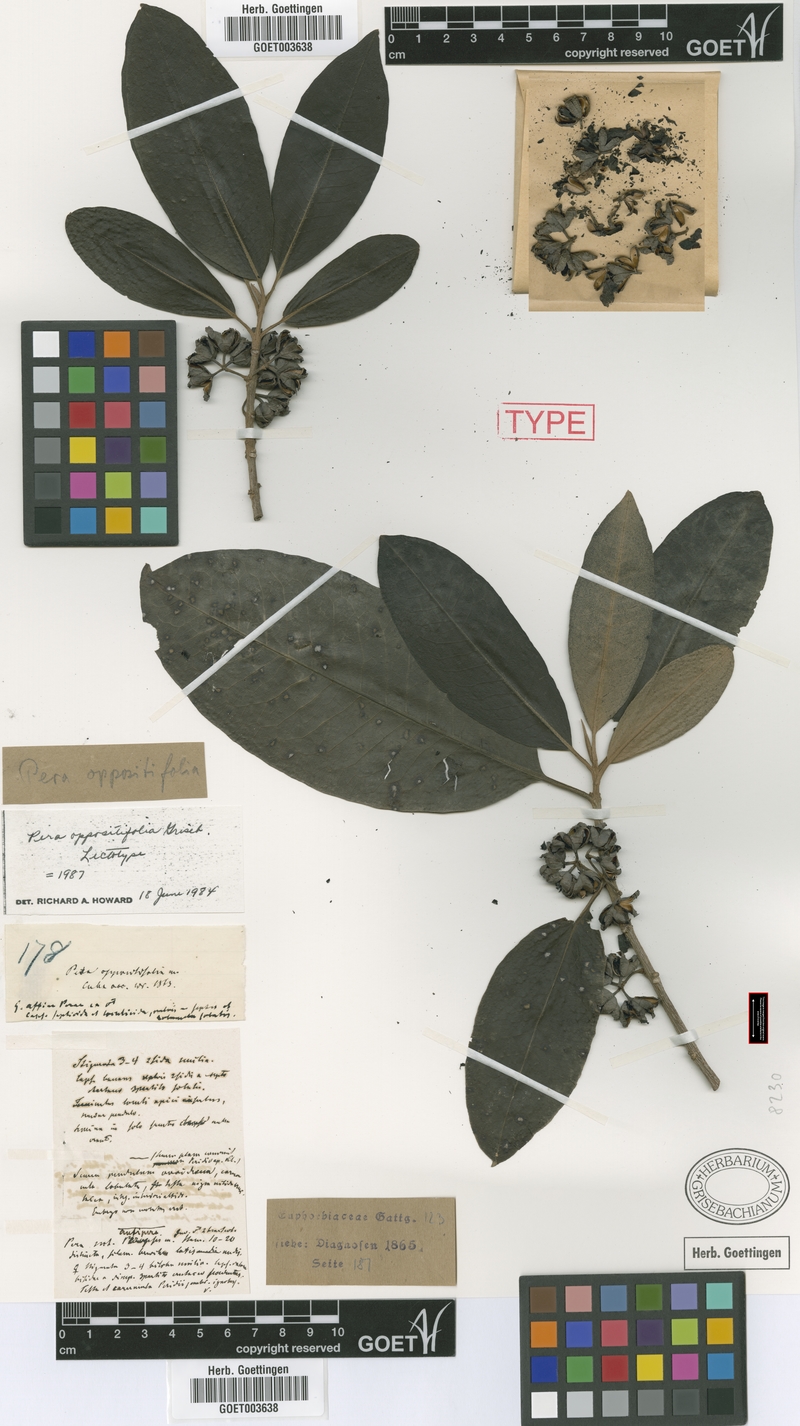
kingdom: Plantae
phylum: Tracheophyta
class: Magnoliopsida
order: Malpighiales
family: Peraceae
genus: Pera
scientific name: Pera oppositifolia
